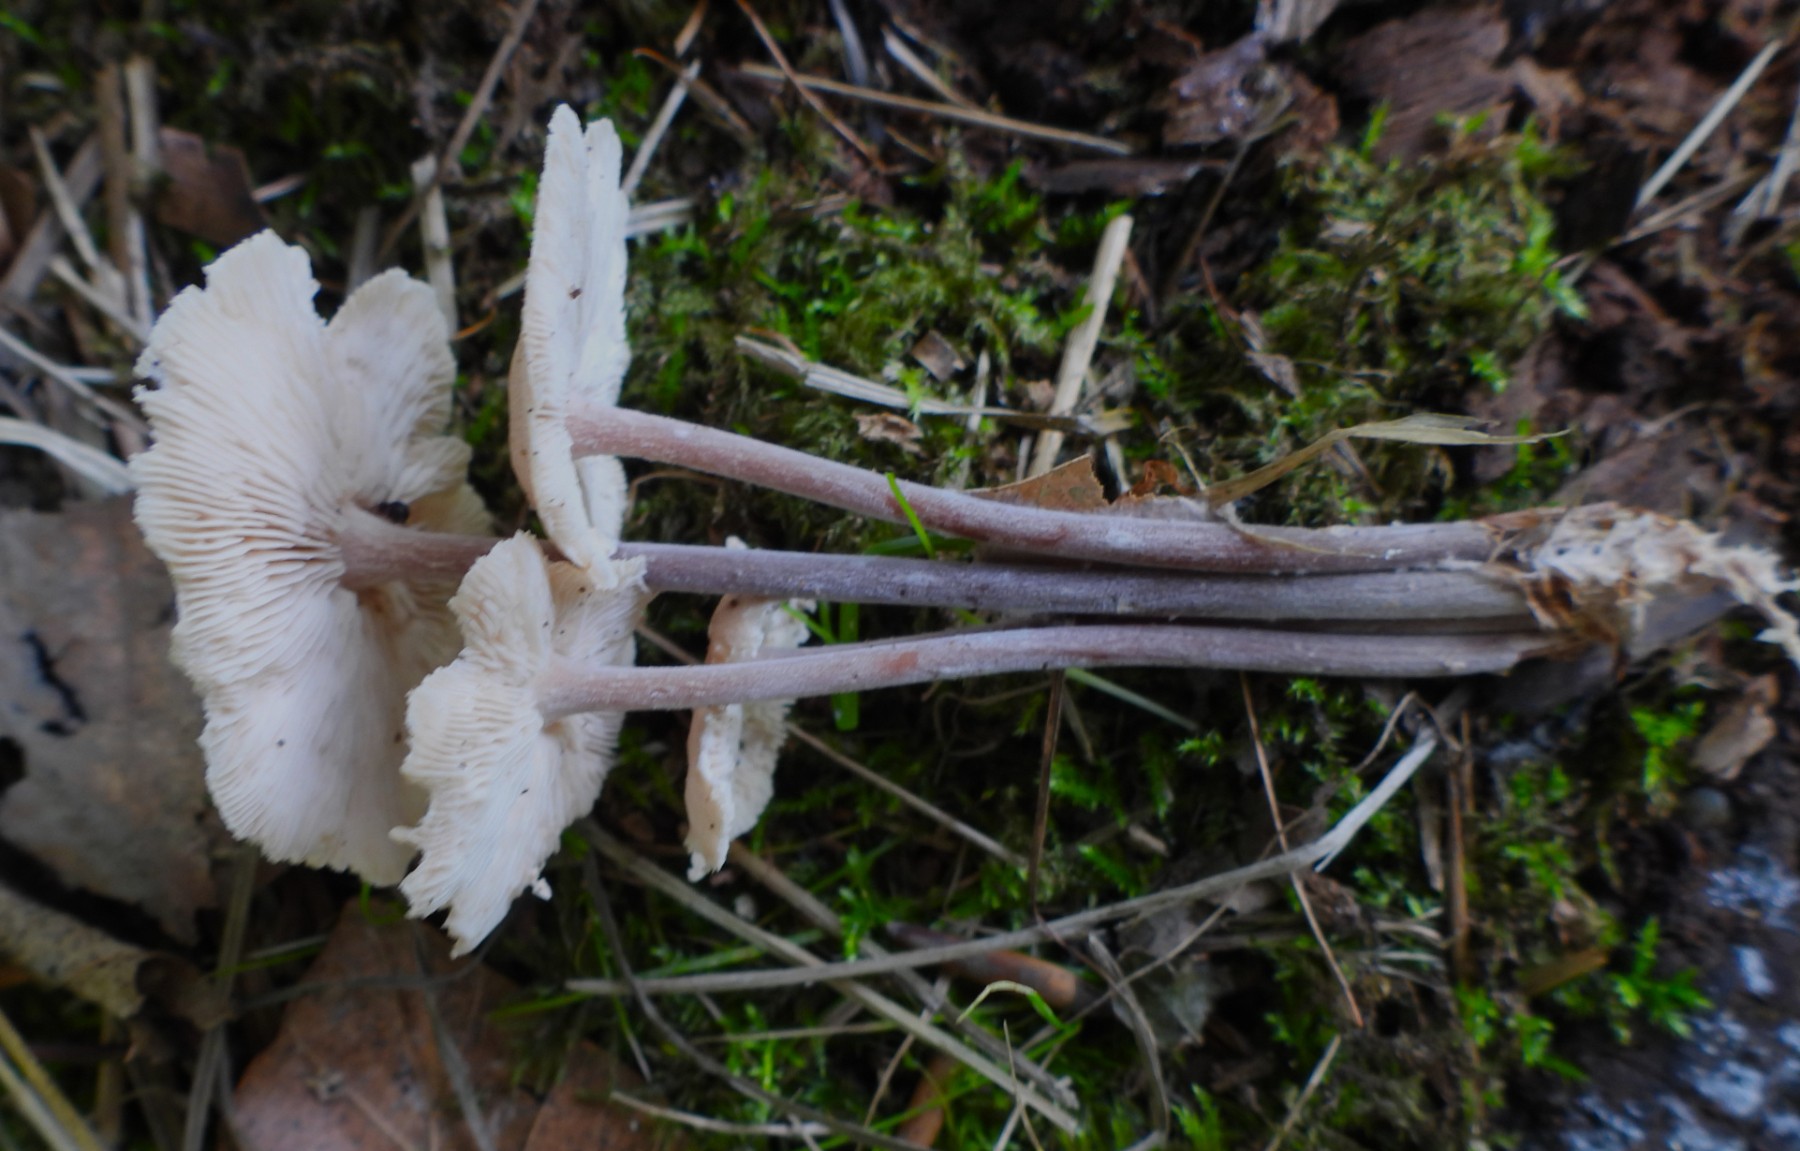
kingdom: Fungi
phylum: Basidiomycota
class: Agaricomycetes
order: Agaricales
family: Omphalotaceae
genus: Collybiopsis
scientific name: Collybiopsis confluens
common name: knippe-fladhat
